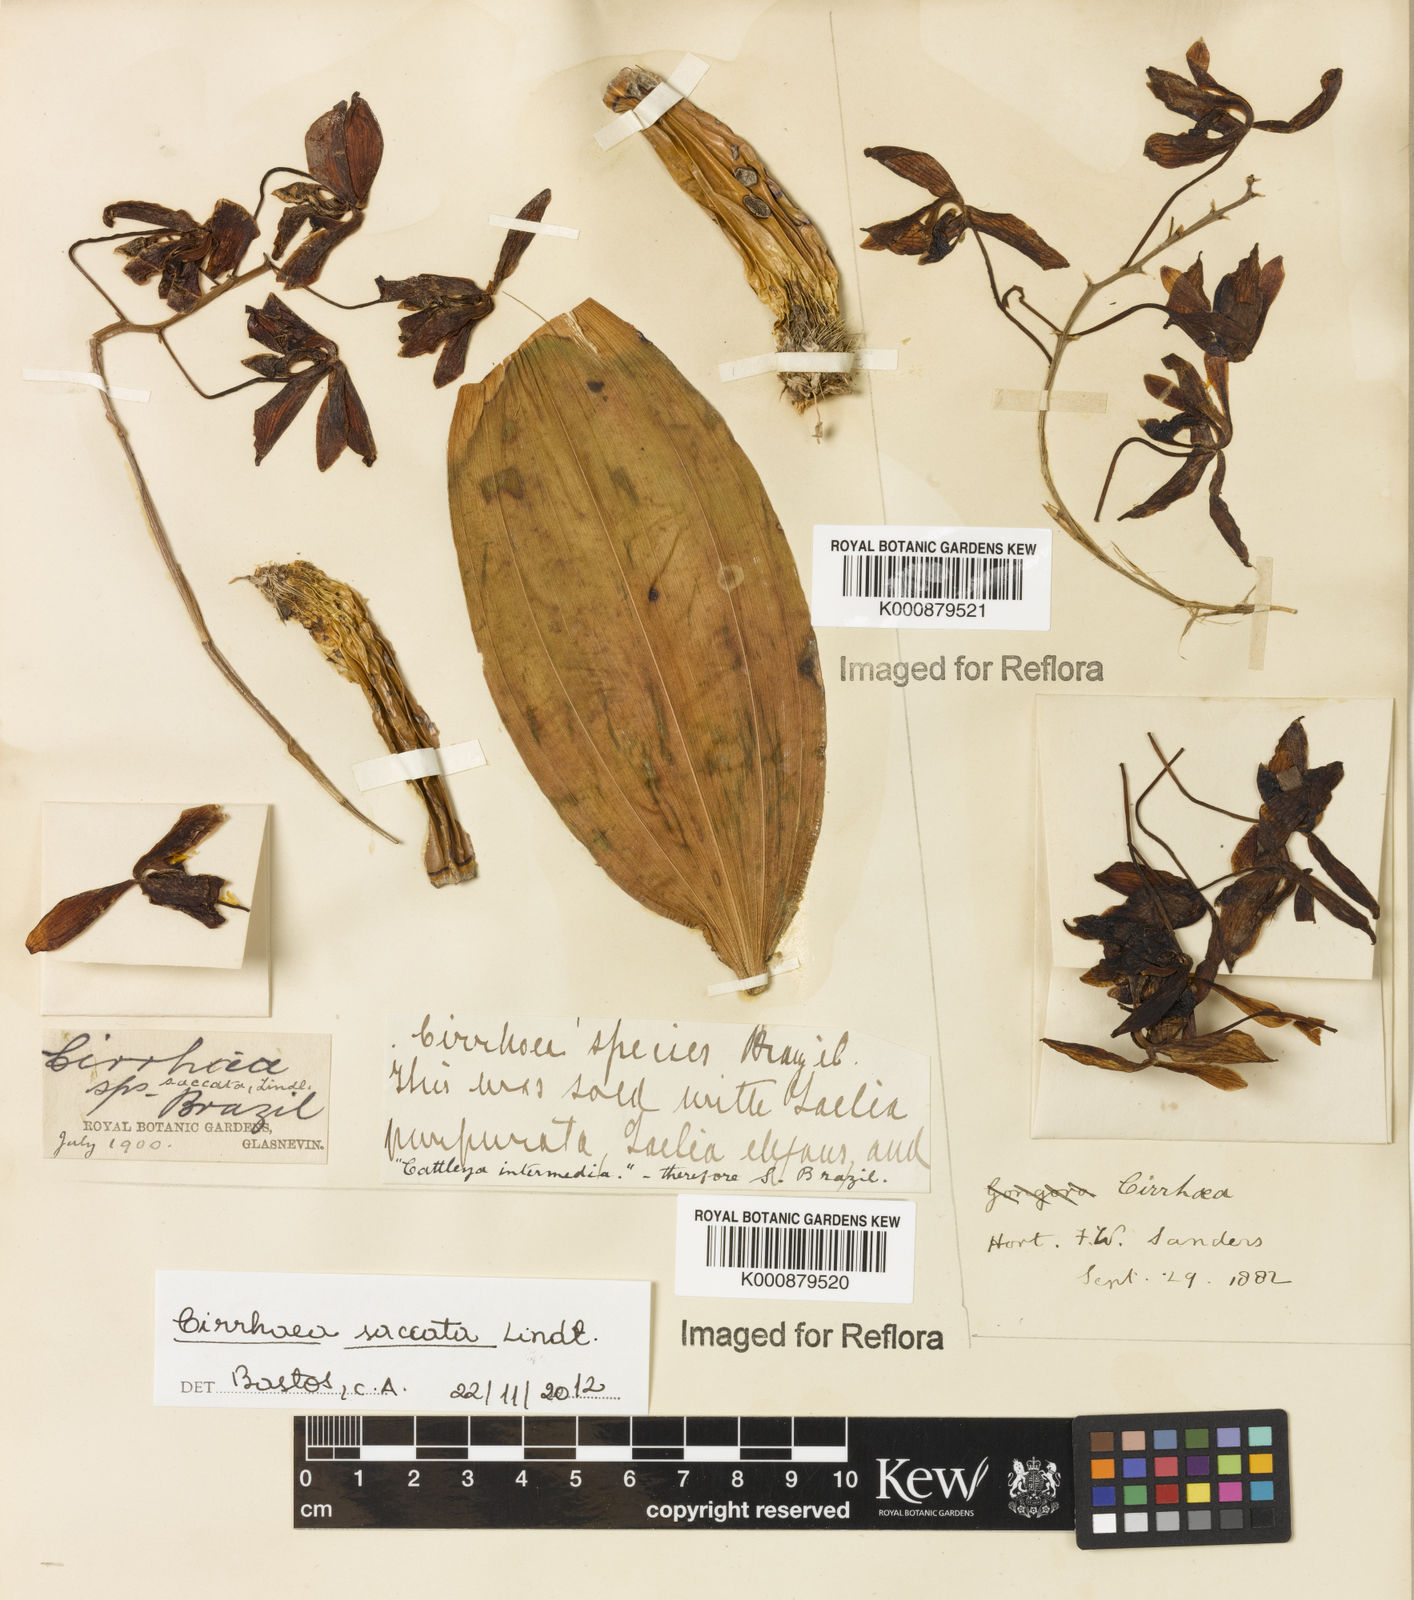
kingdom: Plantae
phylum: Tracheophyta
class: Liliopsida
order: Asparagales
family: Orchidaceae
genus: Cirrhaea
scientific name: Cirrhaea fuscolutea
